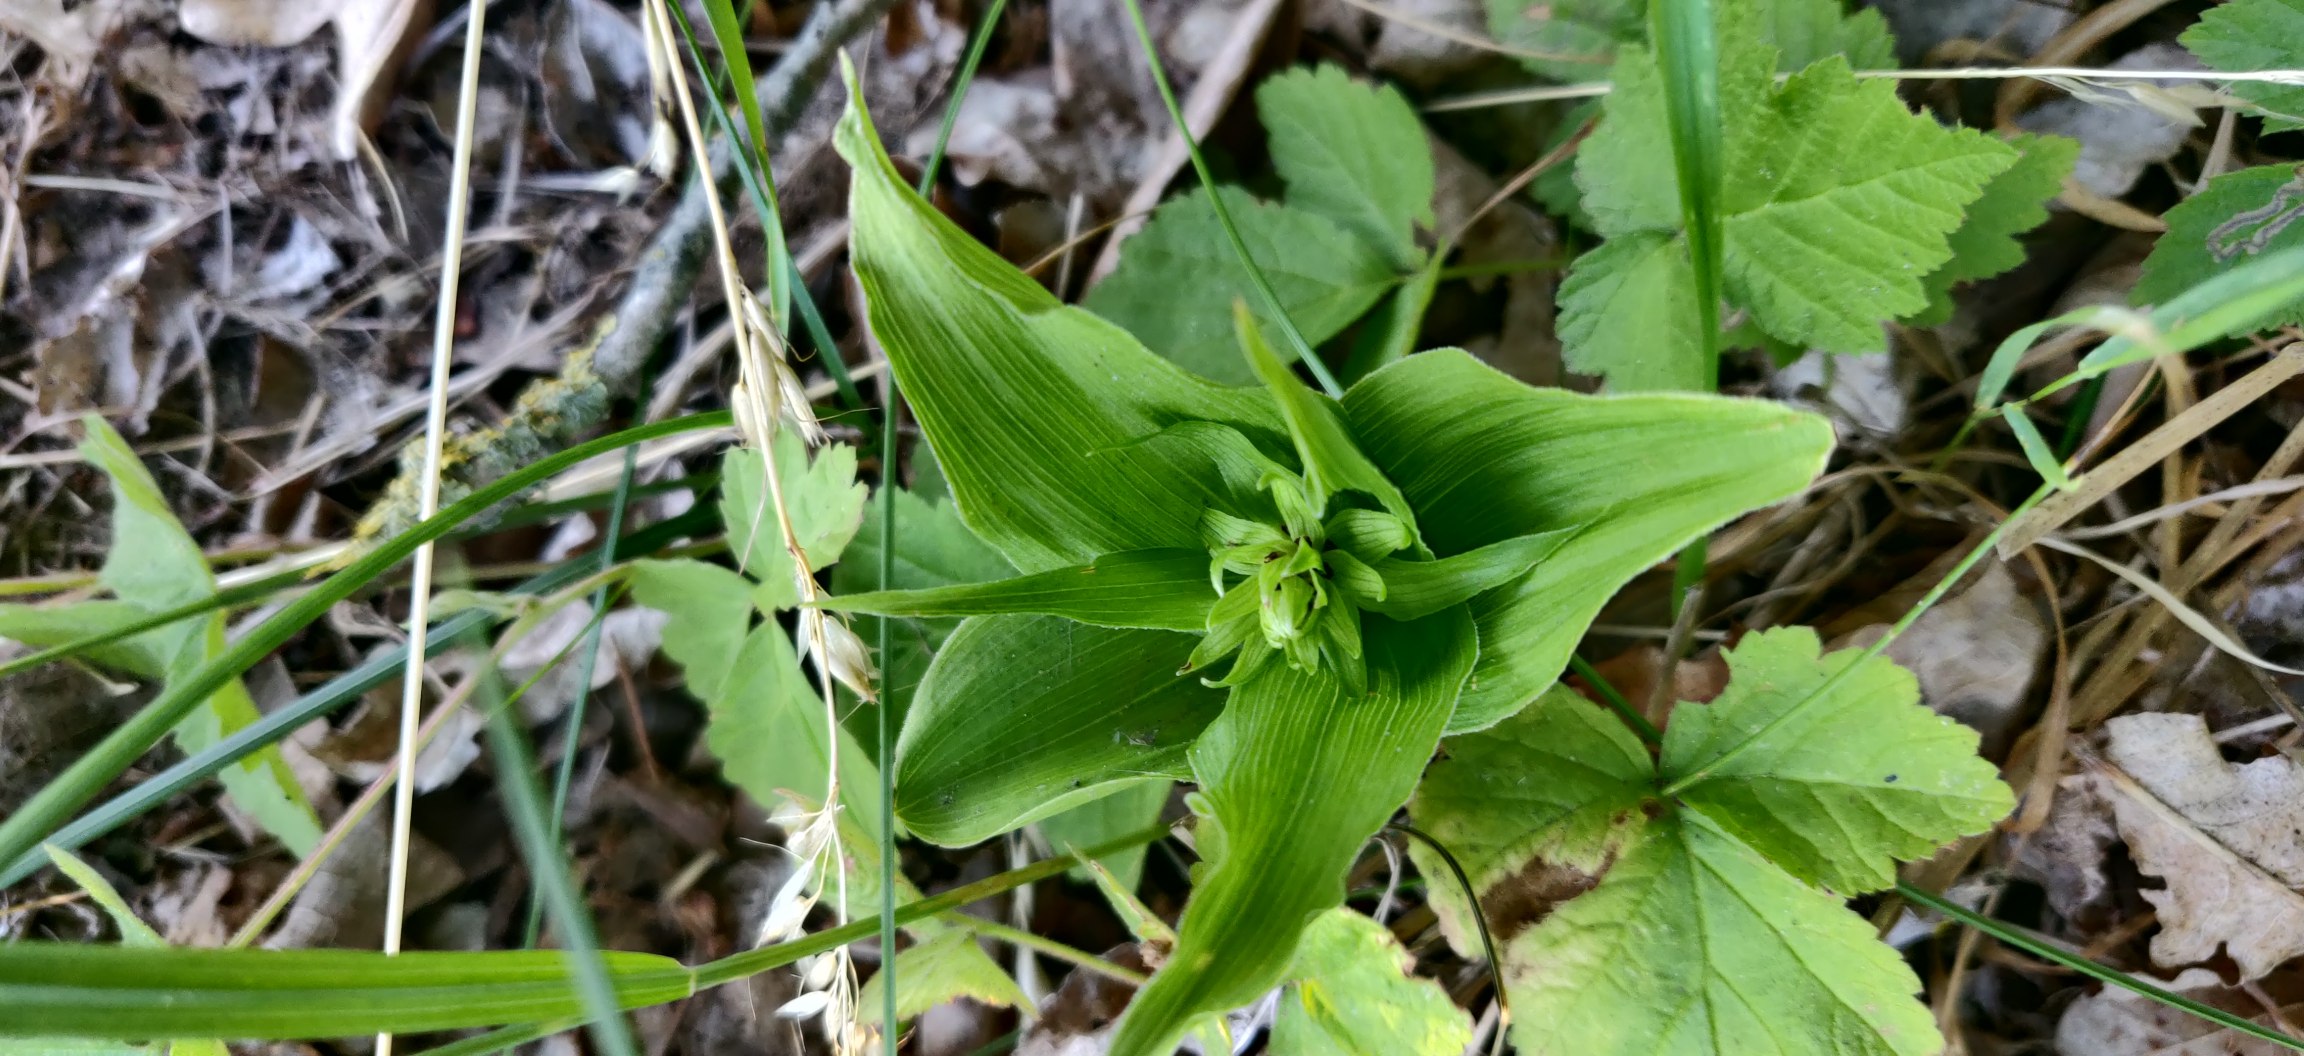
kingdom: Plantae
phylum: Tracheophyta
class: Liliopsida
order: Asparagales
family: Orchidaceae
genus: Epipactis
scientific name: Epipactis helleborine
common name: Skov-hullæbe
